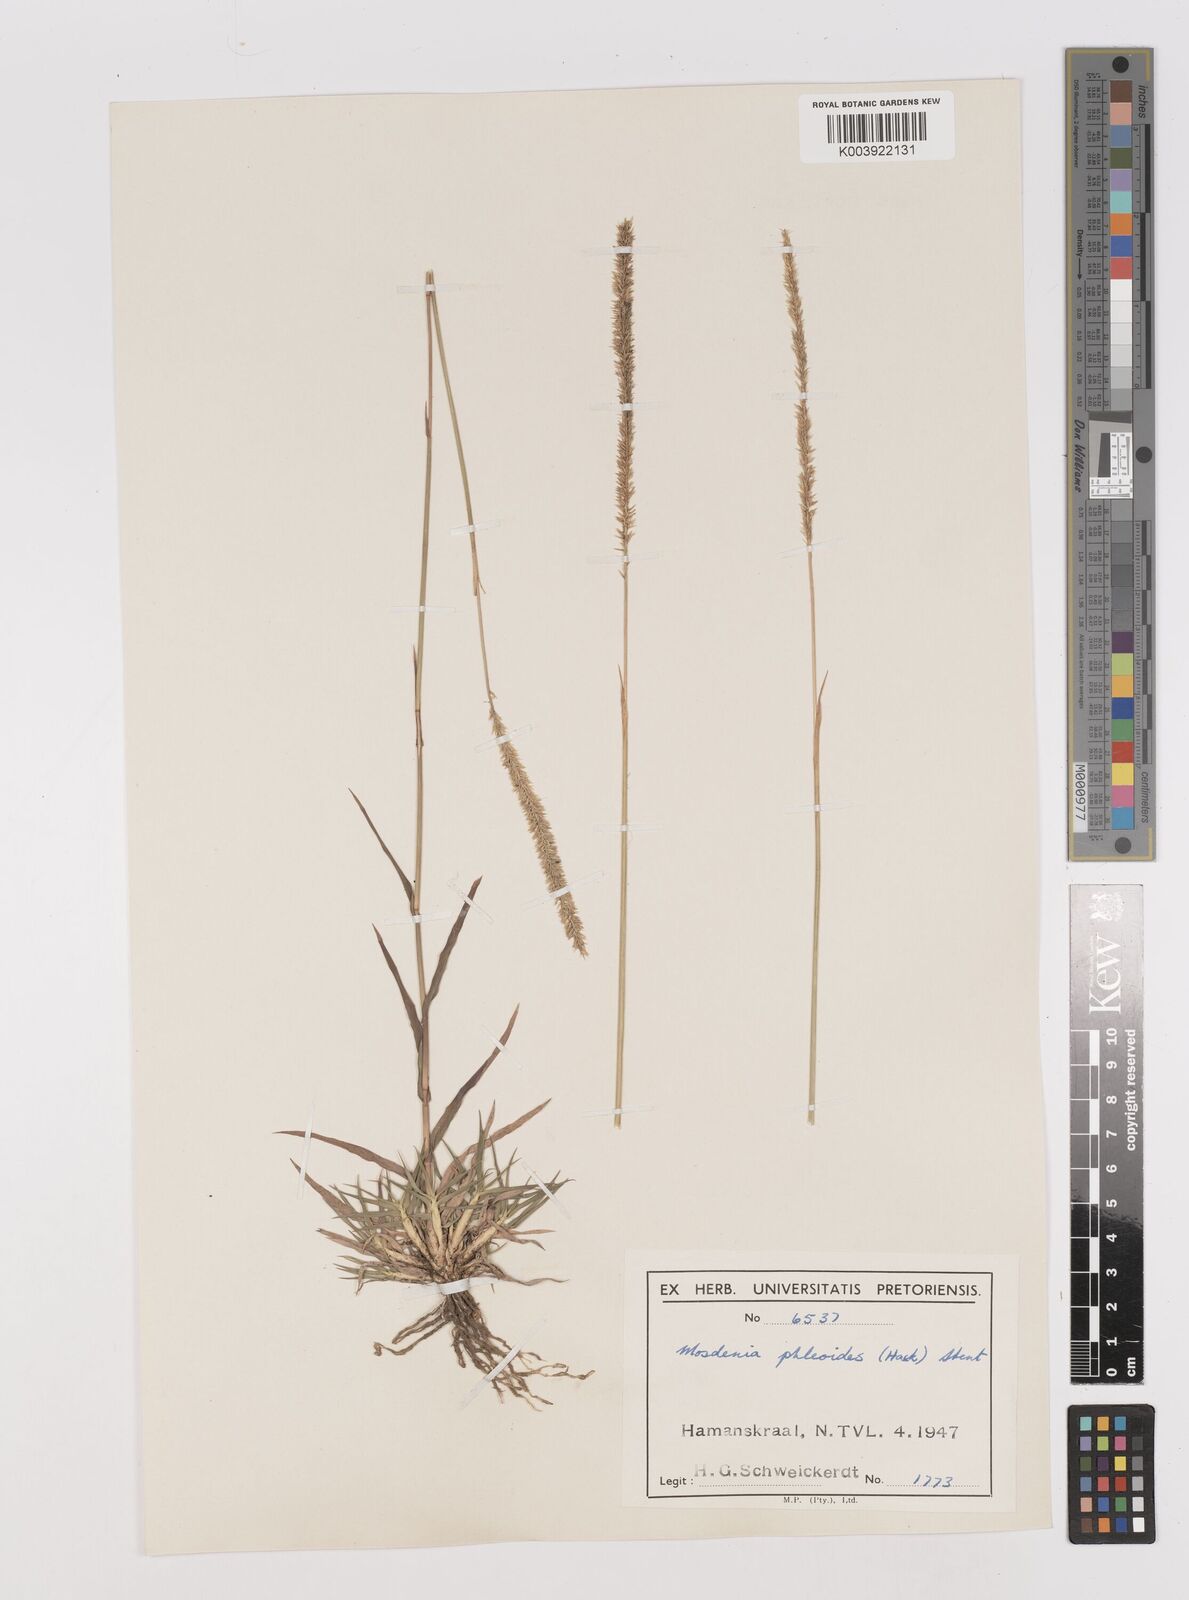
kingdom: Plantae
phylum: Tracheophyta
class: Liliopsida
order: Poales
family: Poaceae
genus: Mosdenia
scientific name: Mosdenia leptostachys
